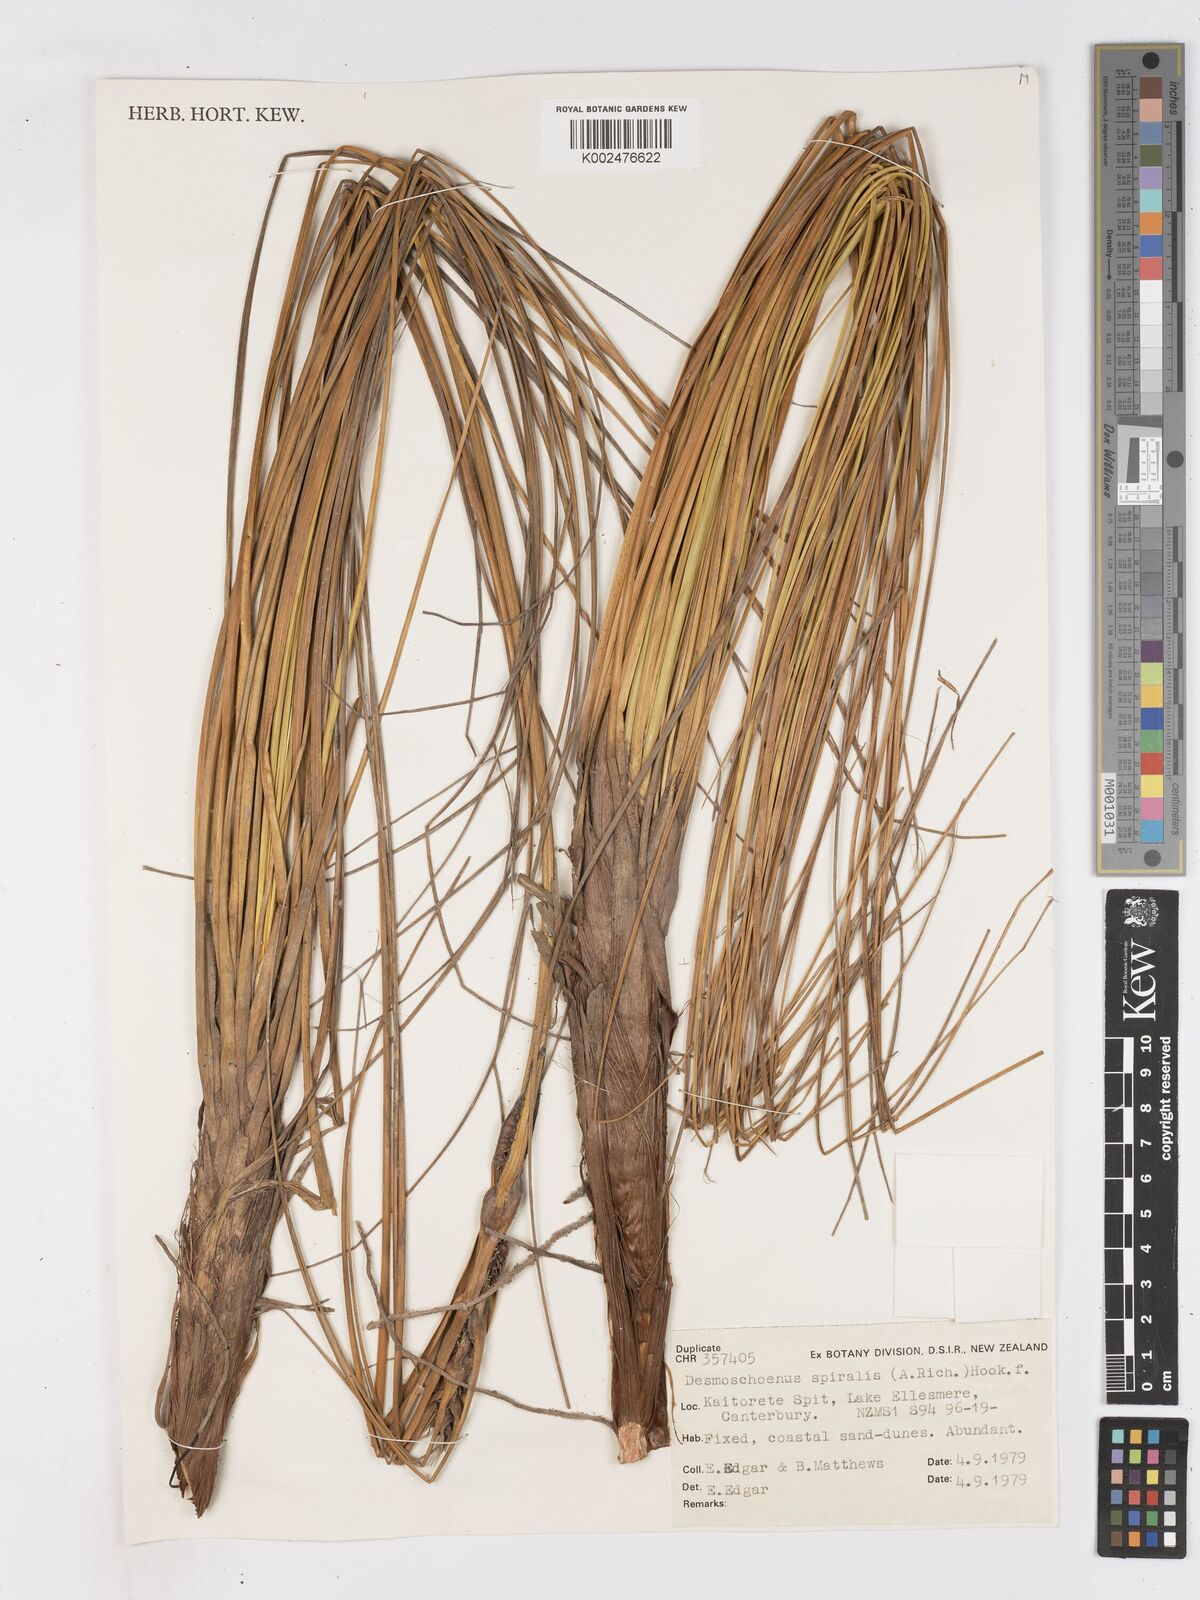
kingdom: Plantae
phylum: Tracheophyta
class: Liliopsida
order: Poales
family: Cyperaceae
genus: Ficinia
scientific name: Ficinia
